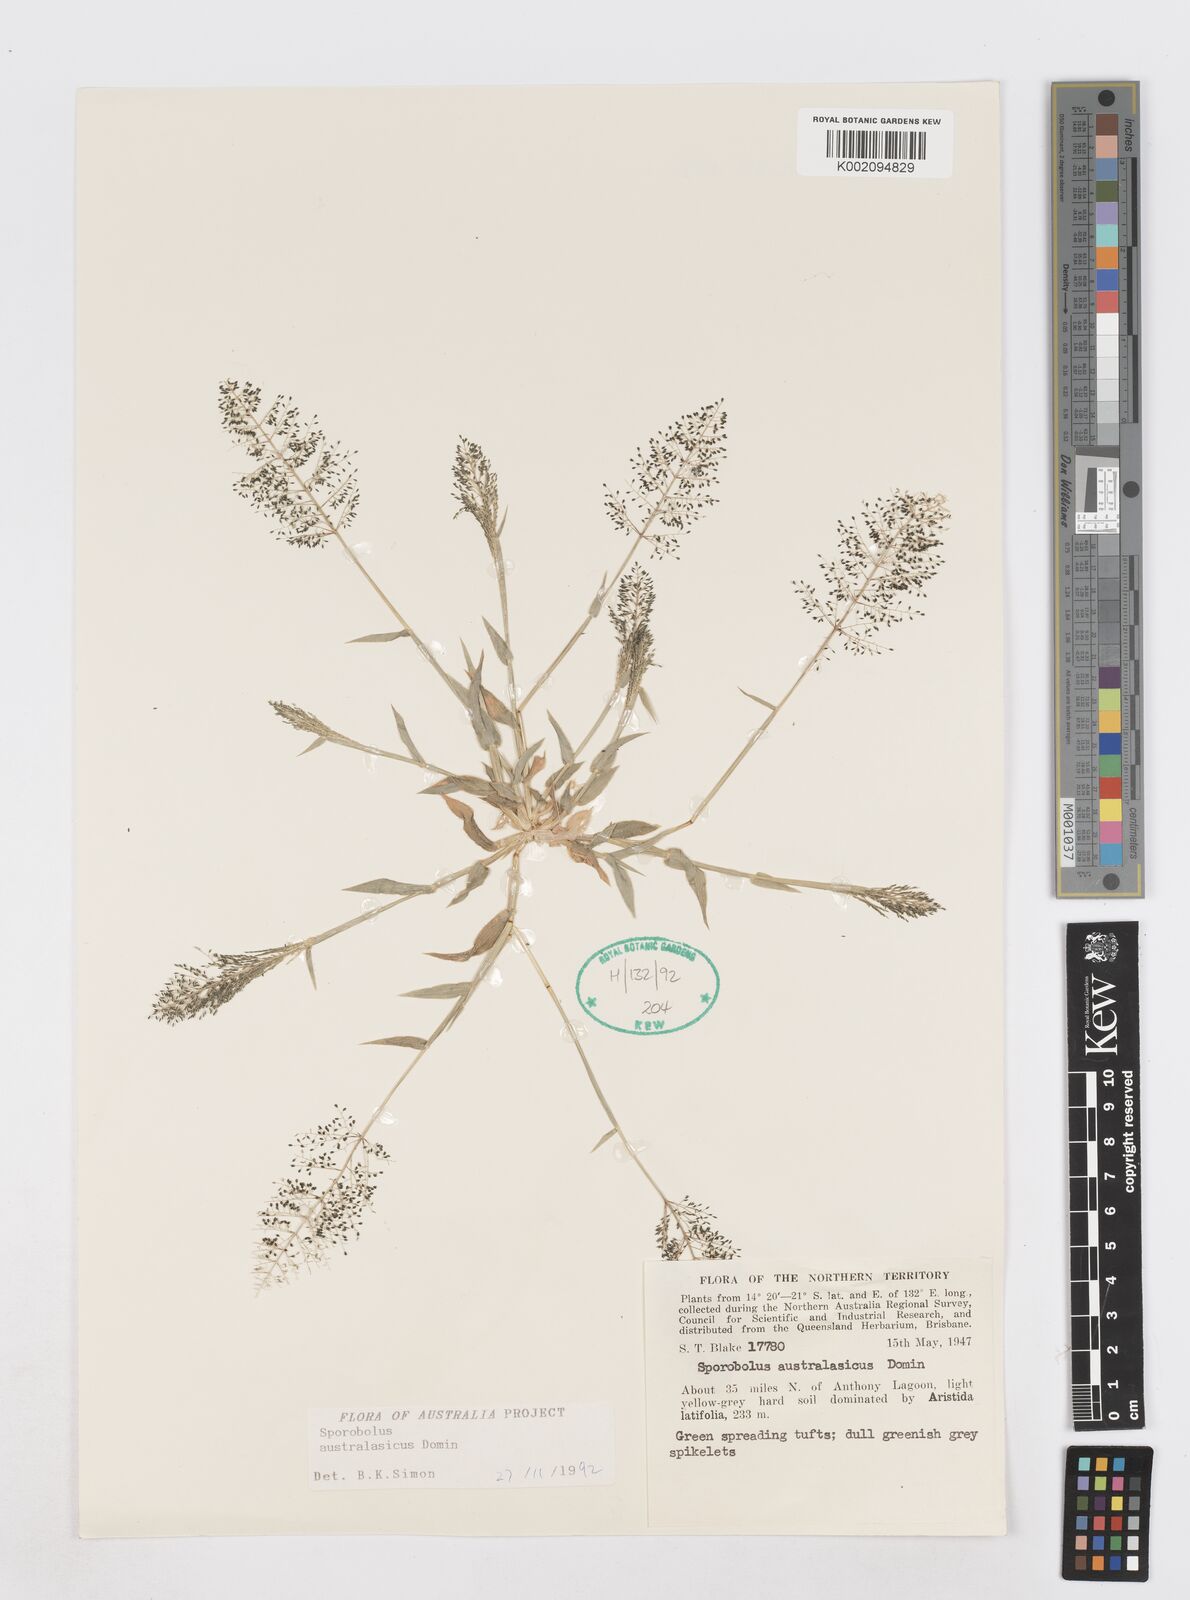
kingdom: Plantae
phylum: Tracheophyta
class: Liliopsida
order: Poales
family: Poaceae
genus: Sporobolus
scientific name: Sporobolus australasicus
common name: Australian dropseed
